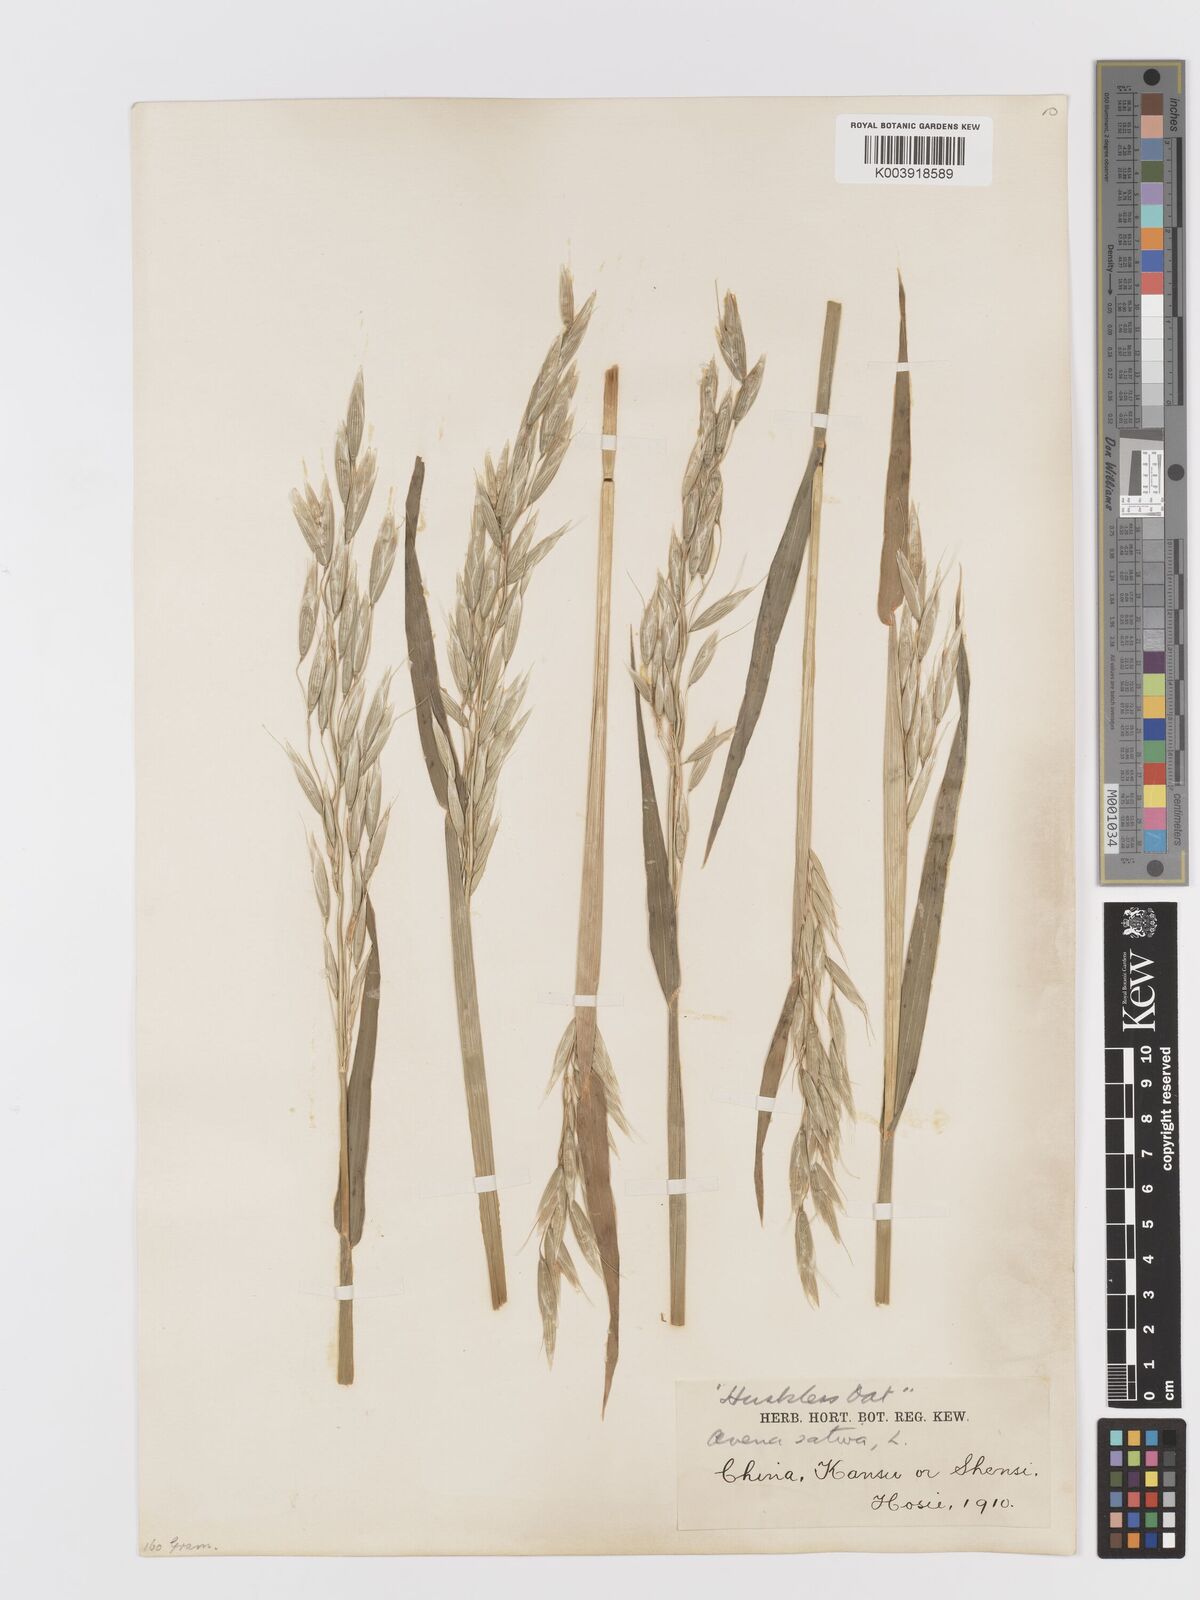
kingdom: Plantae
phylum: Tracheophyta
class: Liliopsida
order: Poales
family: Poaceae
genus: Avena
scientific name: Avena chinensis
